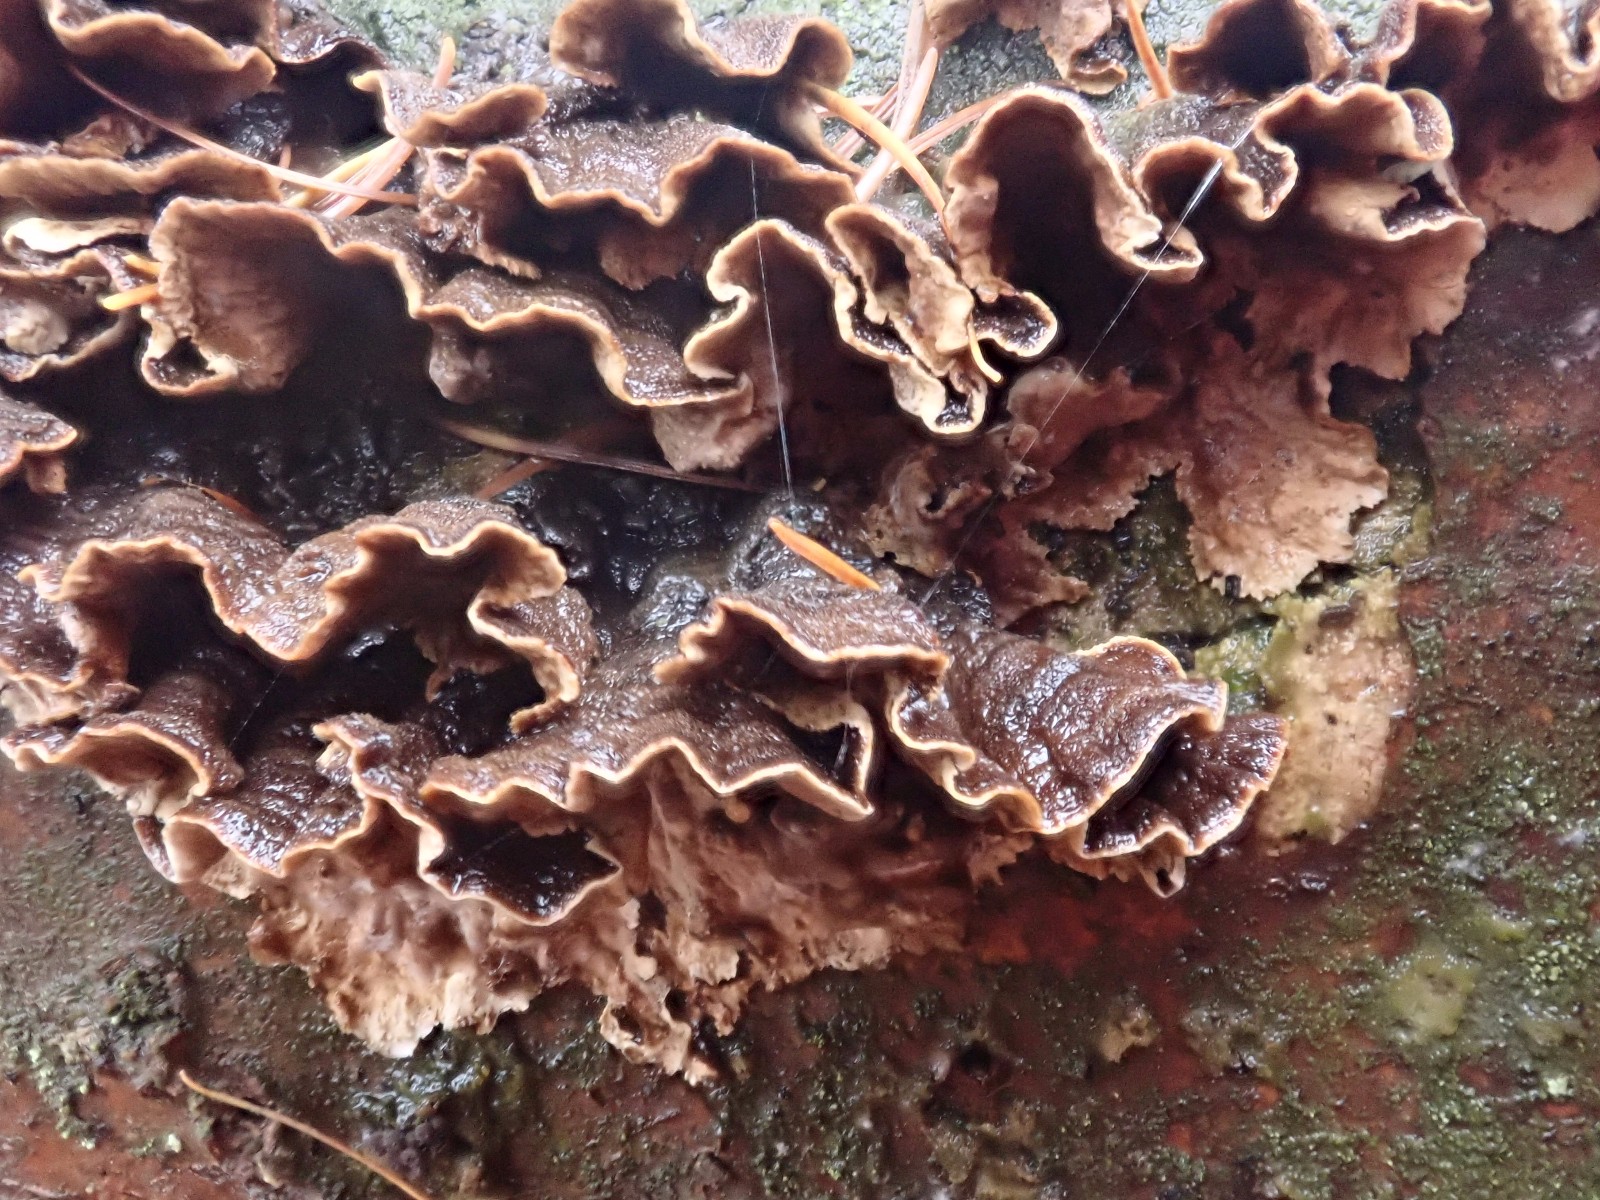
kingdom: Fungi
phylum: Basidiomycota
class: Agaricomycetes
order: Russulales
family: Hericiaceae
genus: Laxitextum
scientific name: Laxitextum bicolor
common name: tvefarvet filtskind
